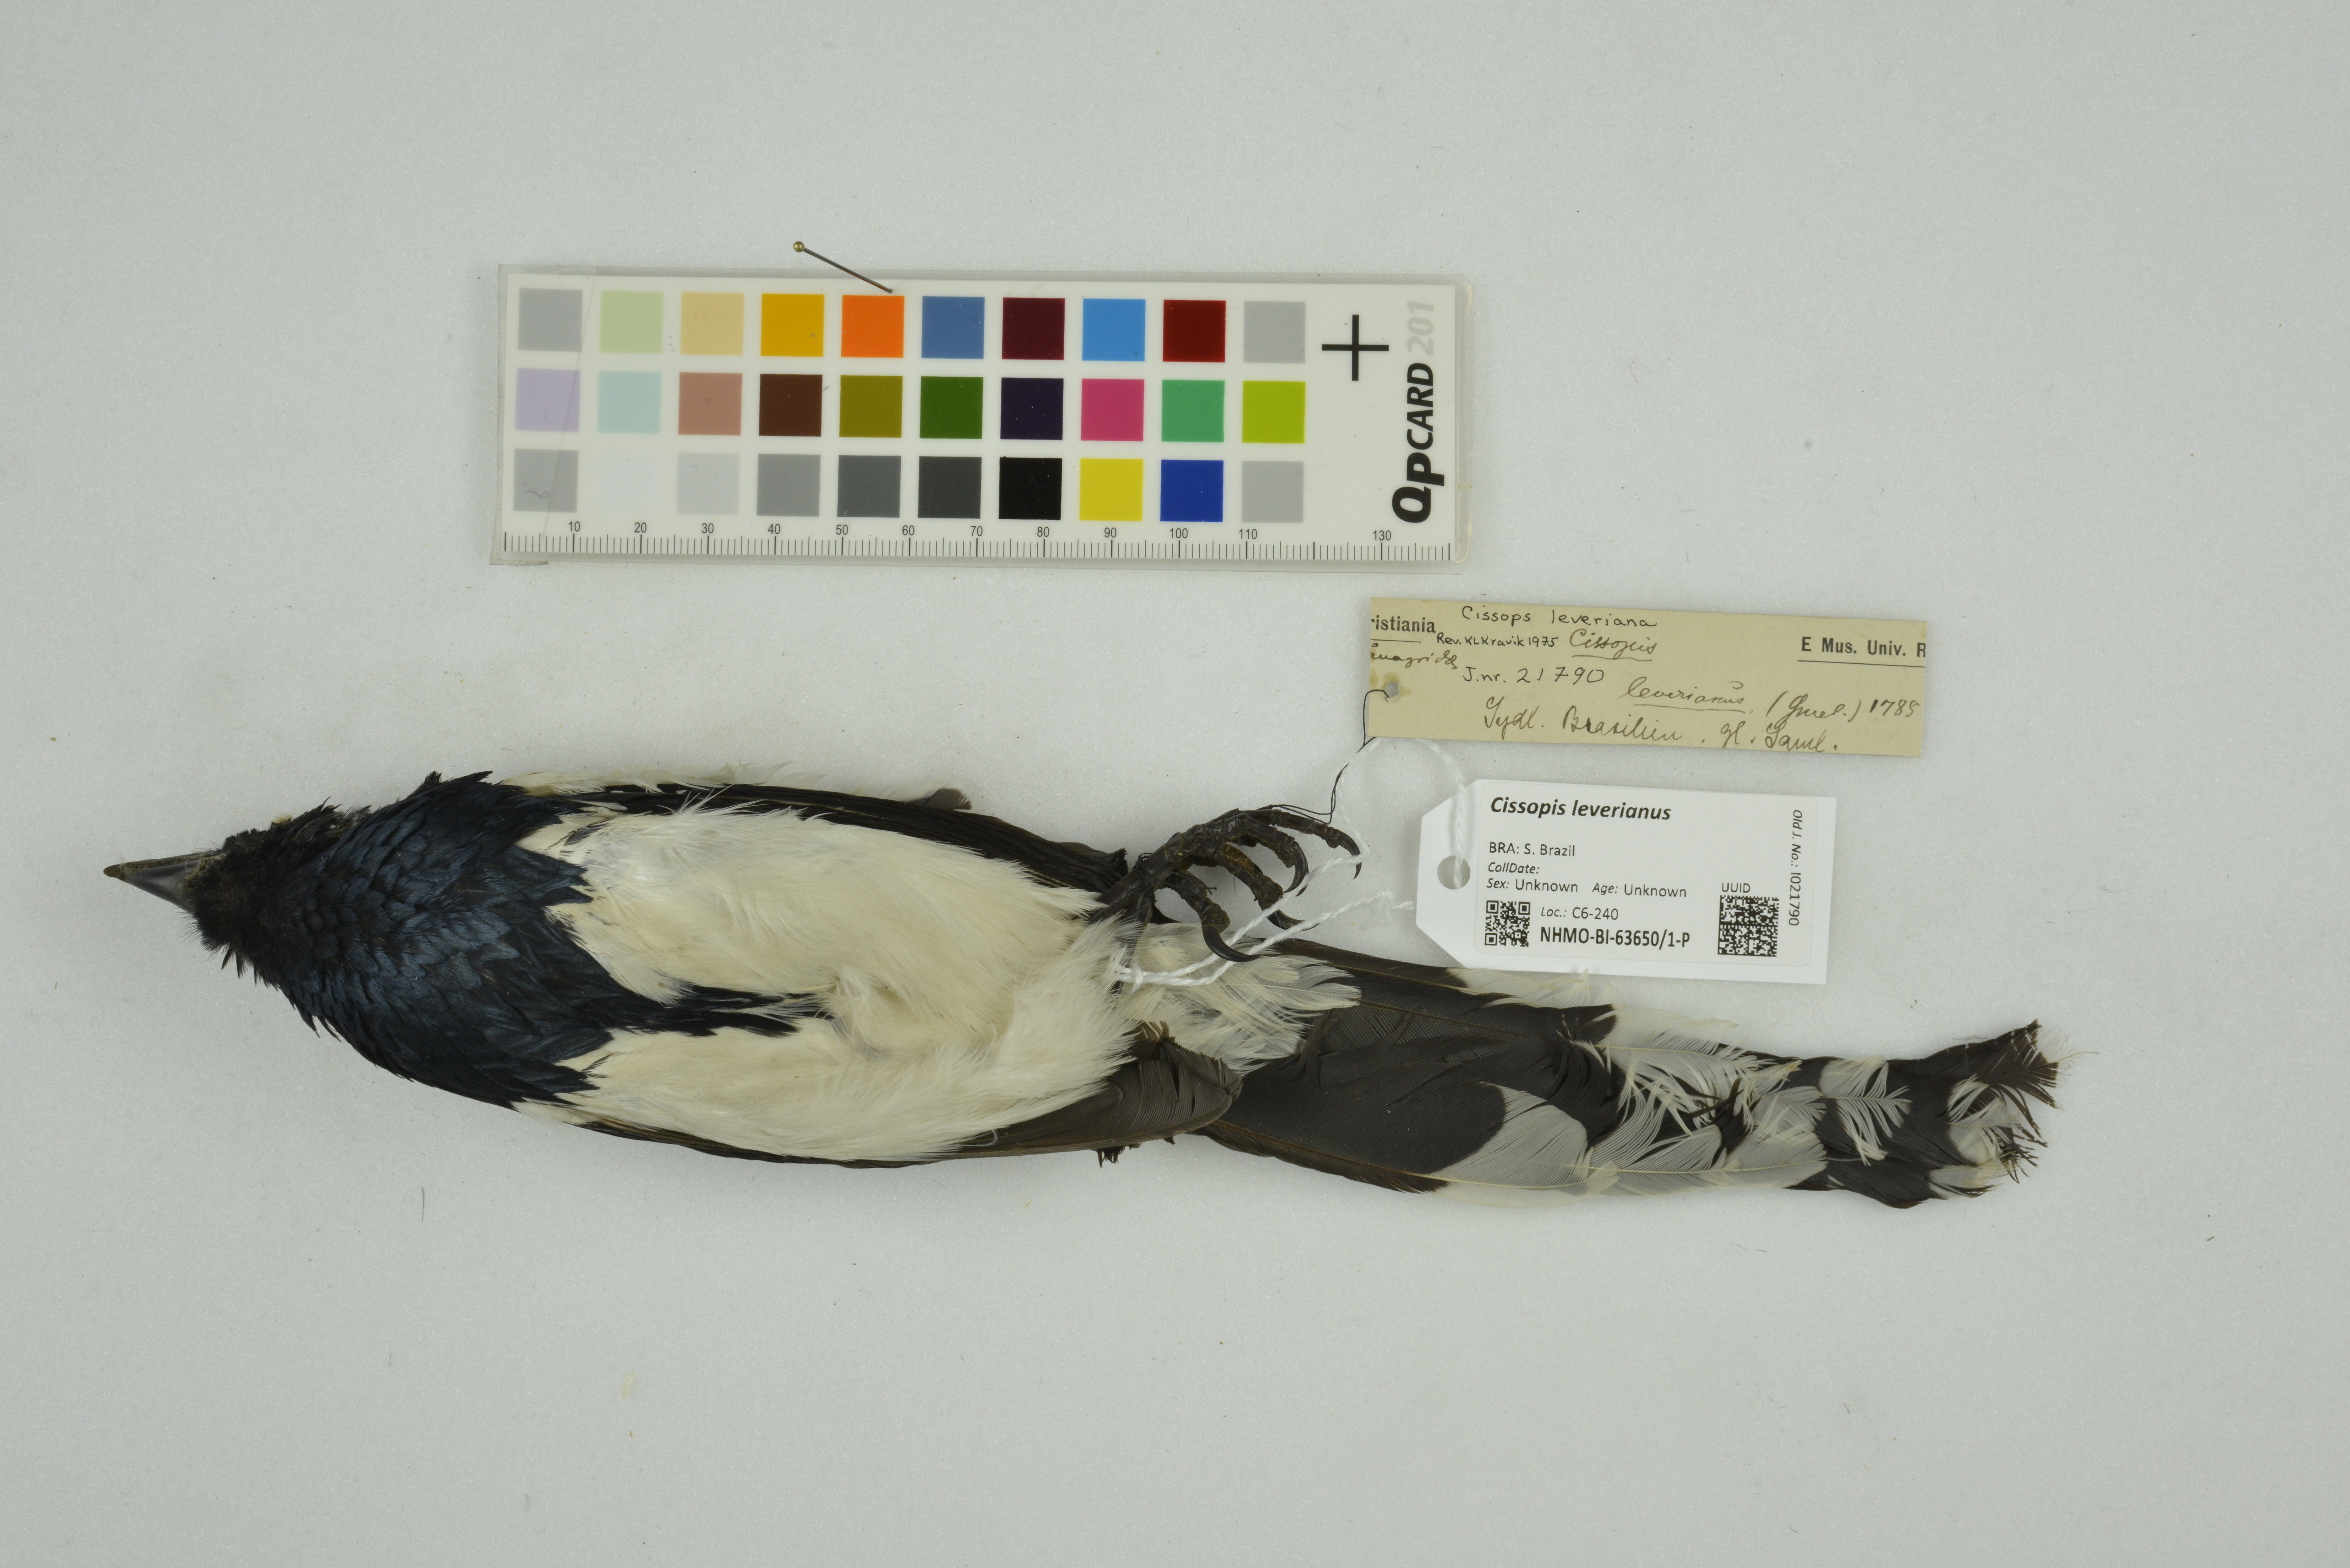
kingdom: Animalia
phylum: Chordata
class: Aves
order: Passeriformes
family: Thraupidae
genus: Cissopis
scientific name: Cissopis leverianus
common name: Magpie tanager
